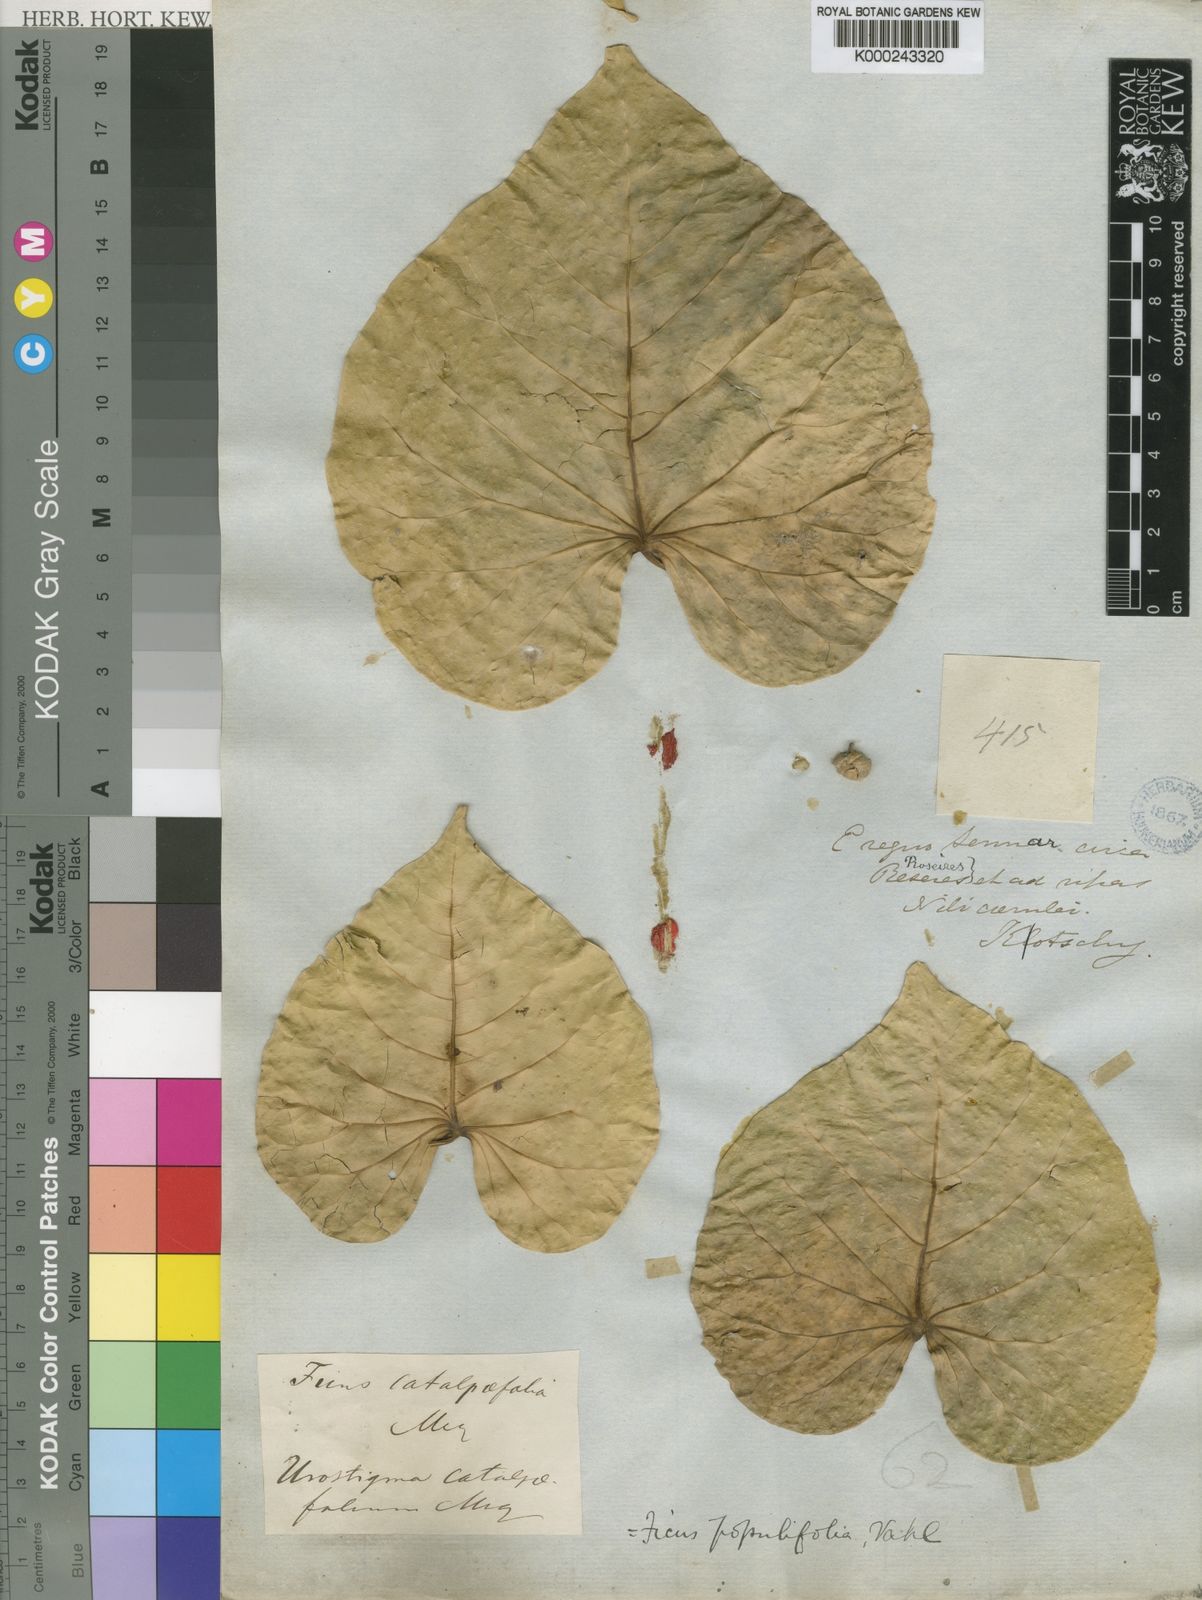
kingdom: Plantae
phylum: Tracheophyta
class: Magnoliopsida
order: Rosales
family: Moraceae
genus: Ficus
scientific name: Ficus populifolia
